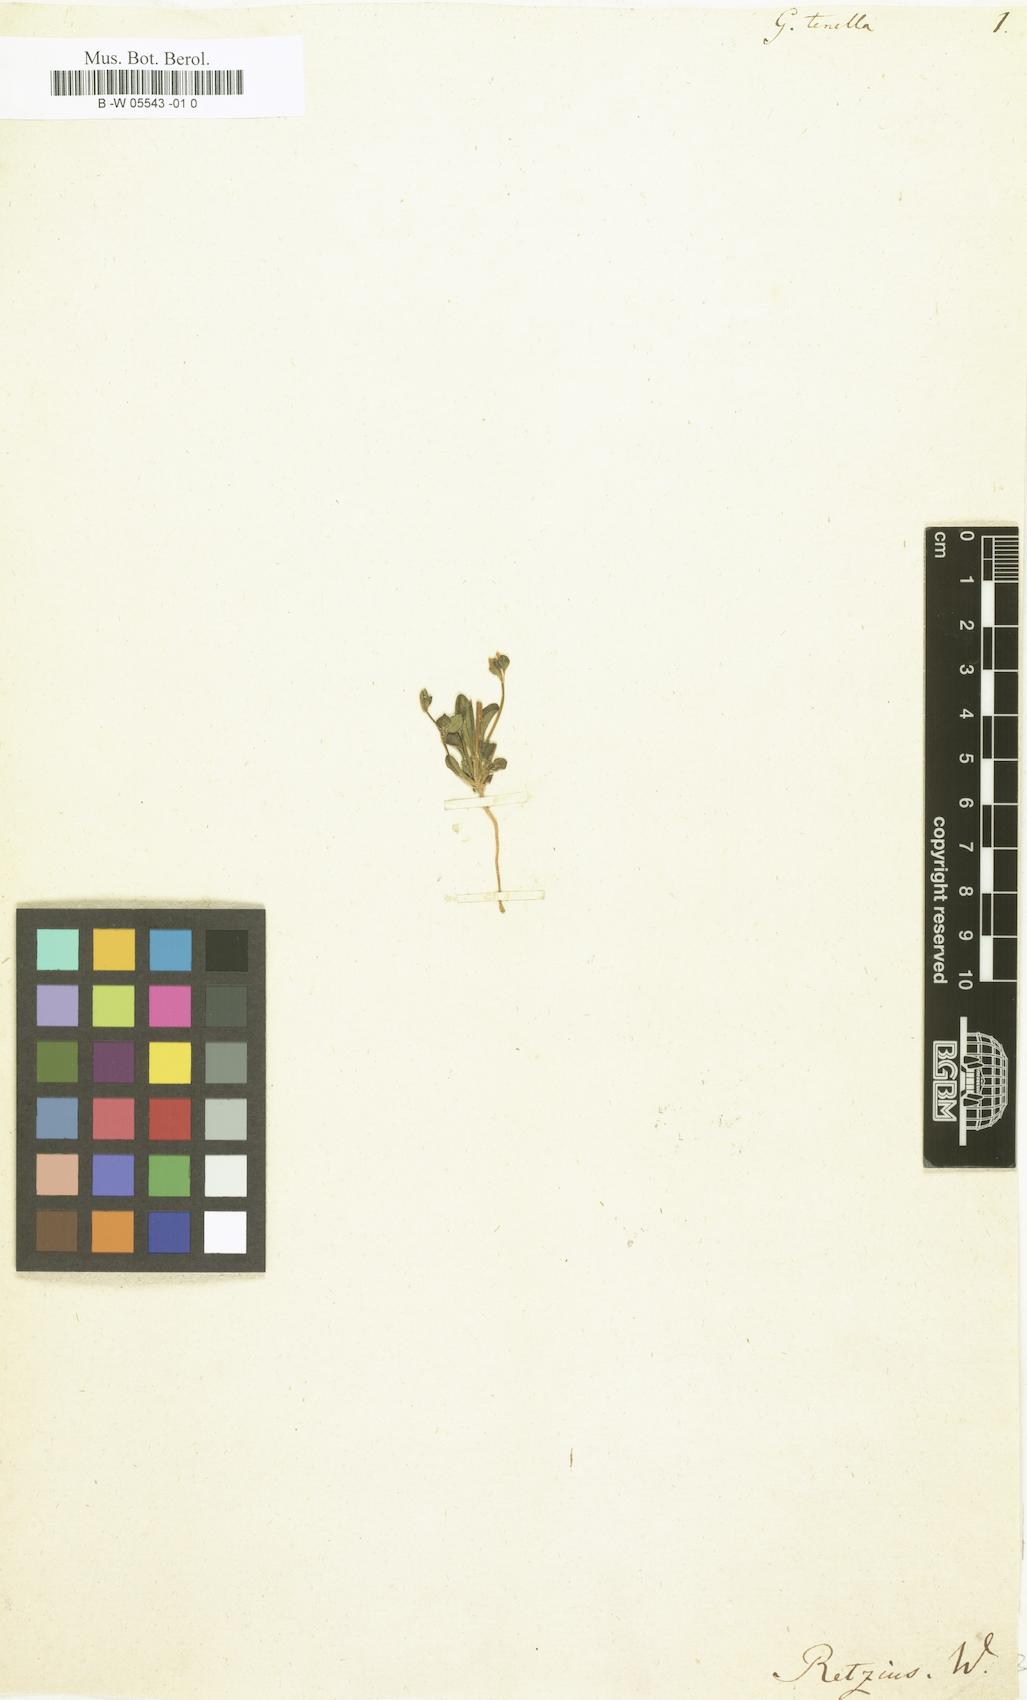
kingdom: Plantae
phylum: Tracheophyta
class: Magnoliopsida
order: Gentianales
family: Gentianaceae
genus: Comastoma
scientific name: Comastoma tenellum
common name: Dane's dwarf gentian
